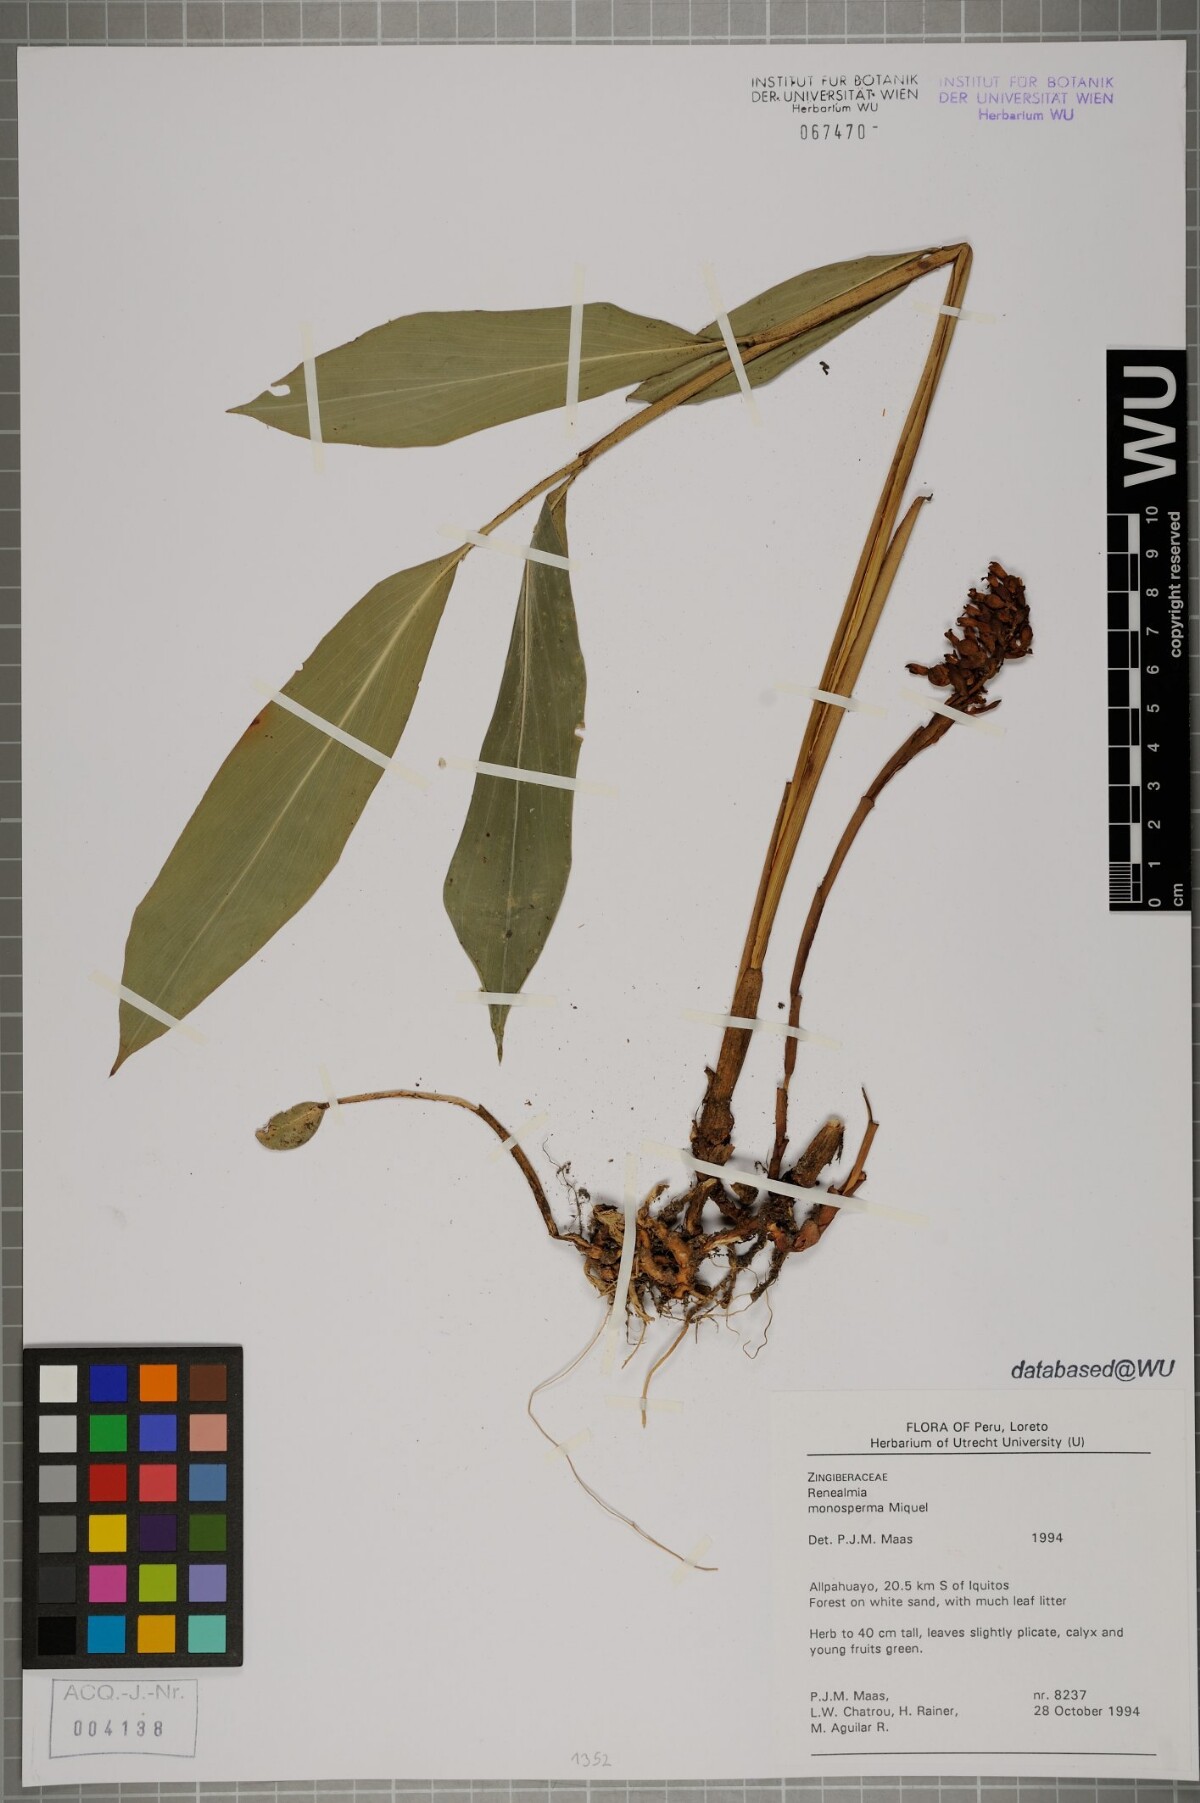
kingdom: Plantae
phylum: Tracheophyta
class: Liliopsida
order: Zingiberales
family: Zingiberaceae
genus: Renealmia
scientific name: Renealmia monosperma
